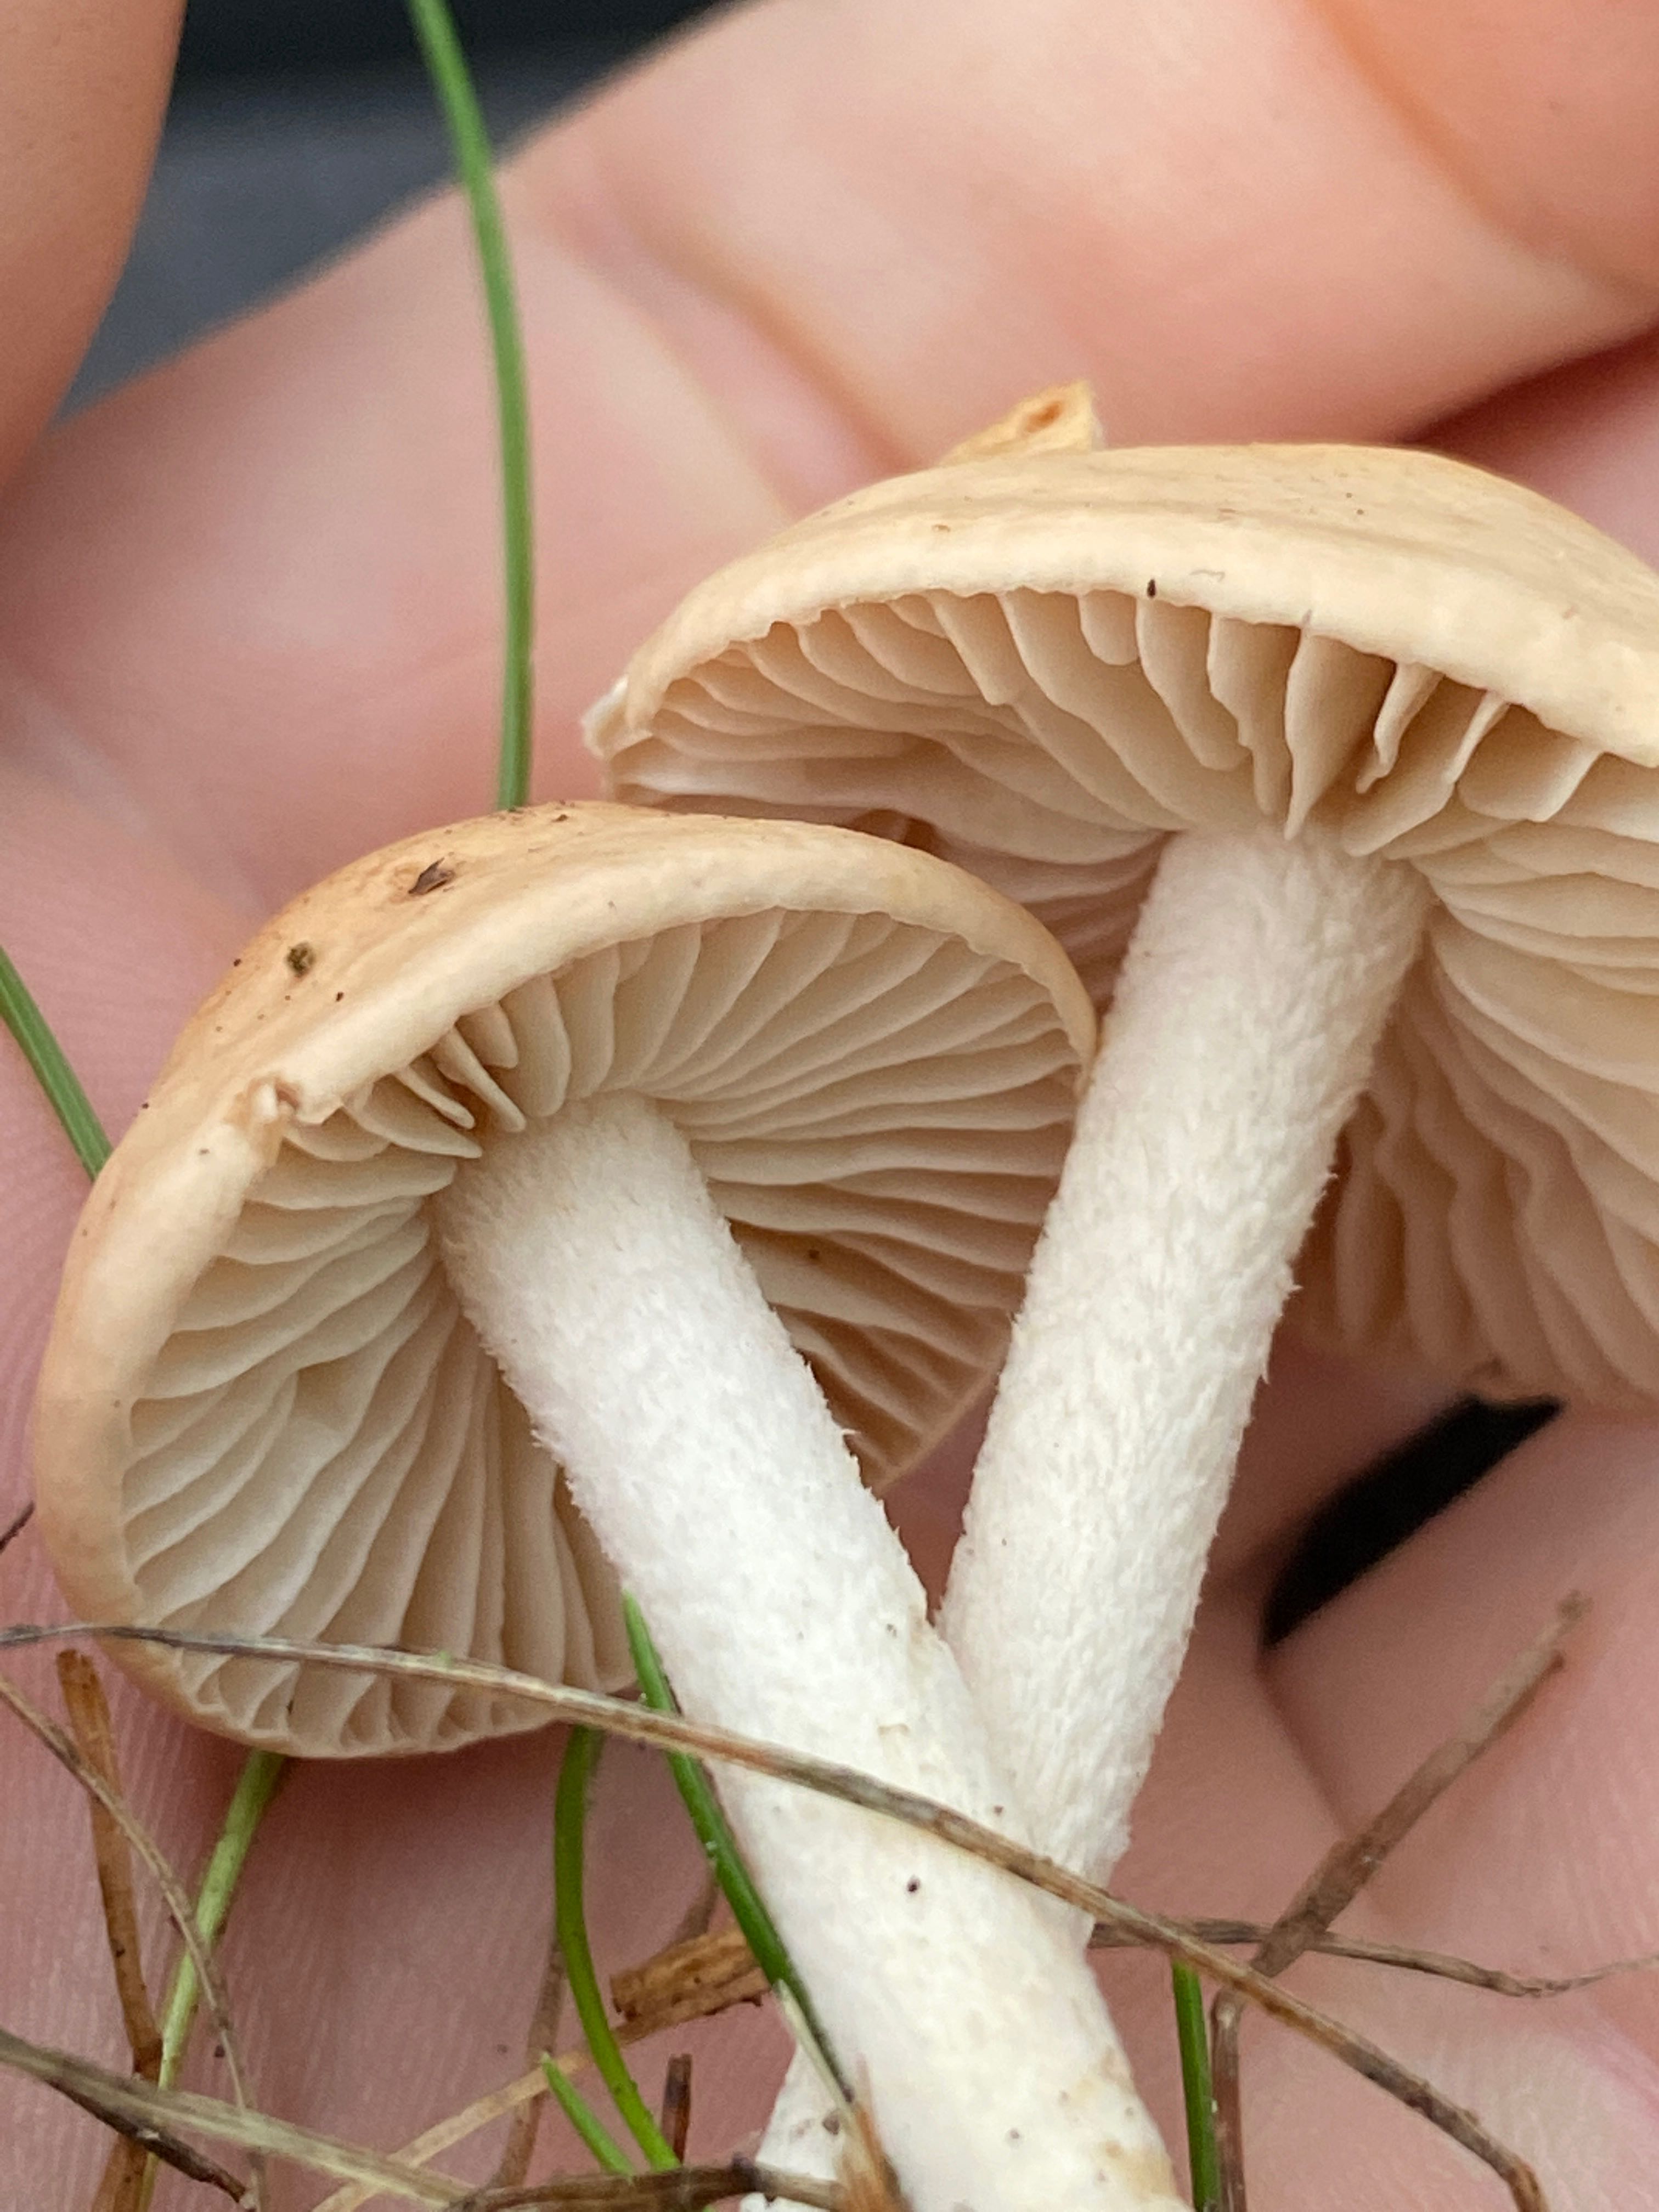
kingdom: Fungi
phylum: Basidiomycota
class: Agaricomycetes
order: Agaricales
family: Marasmiaceae
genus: Marasmius
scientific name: Marasmius oreades
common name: elledans-bruskhat
